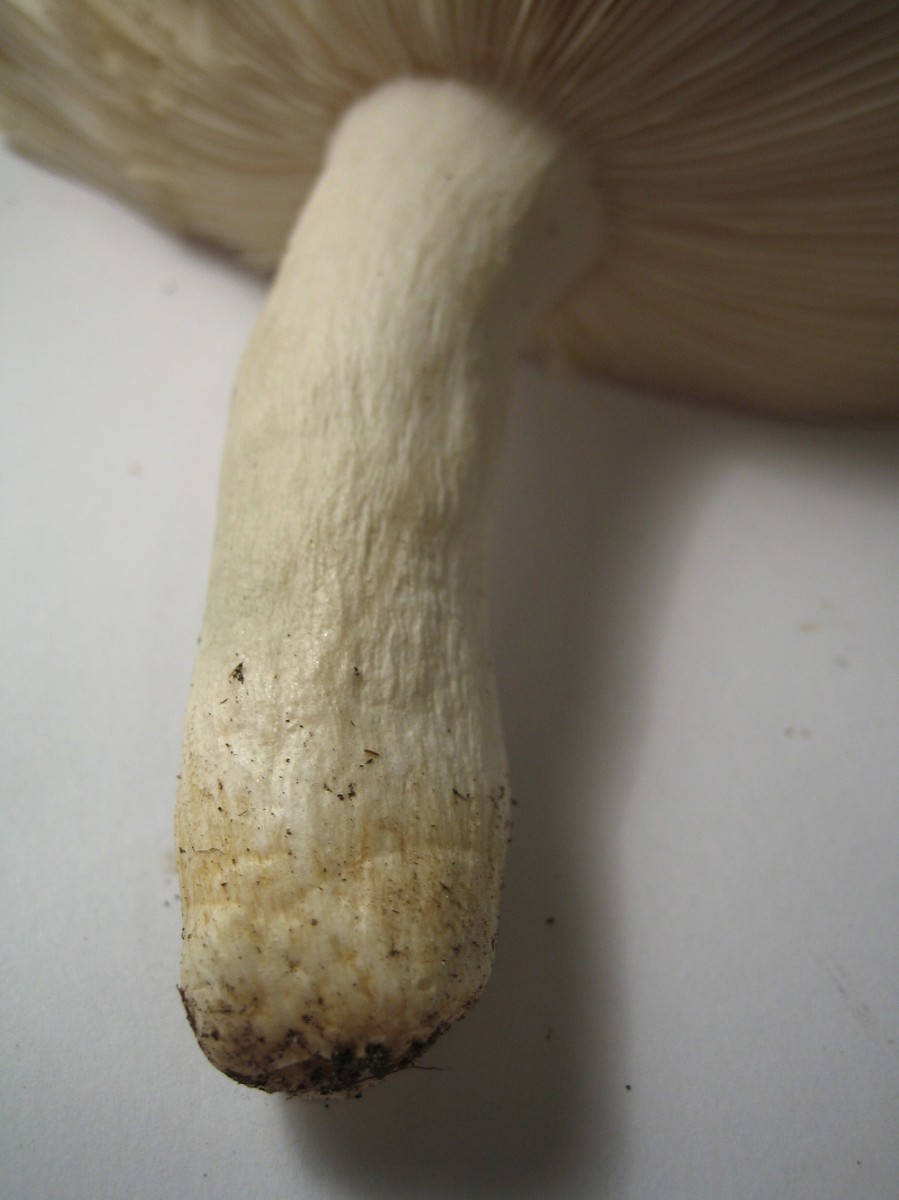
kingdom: Fungi
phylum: Basidiomycota
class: Agaricomycetes
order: Russulales
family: Russulaceae
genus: Russula
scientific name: Russula
